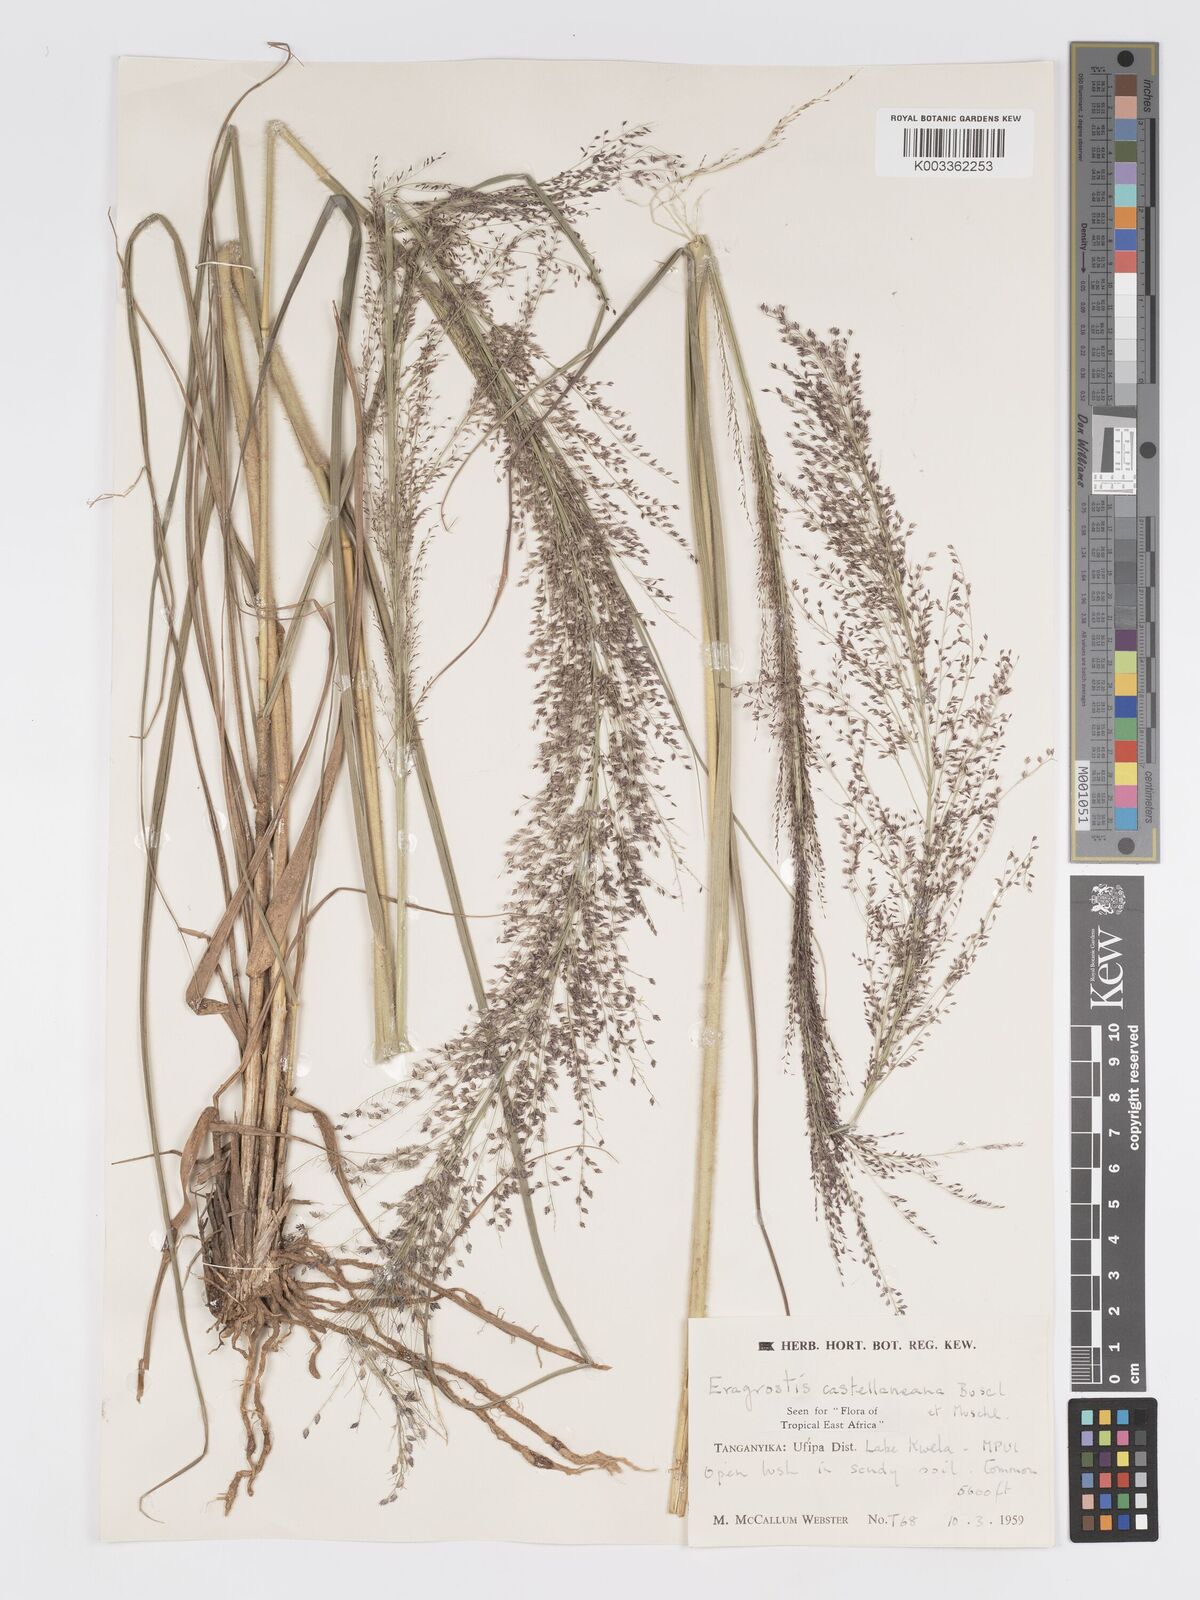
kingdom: Plantae
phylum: Tracheophyta
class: Liliopsida
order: Poales
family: Poaceae
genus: Eragrostis
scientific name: Eragrostis castellaneana
